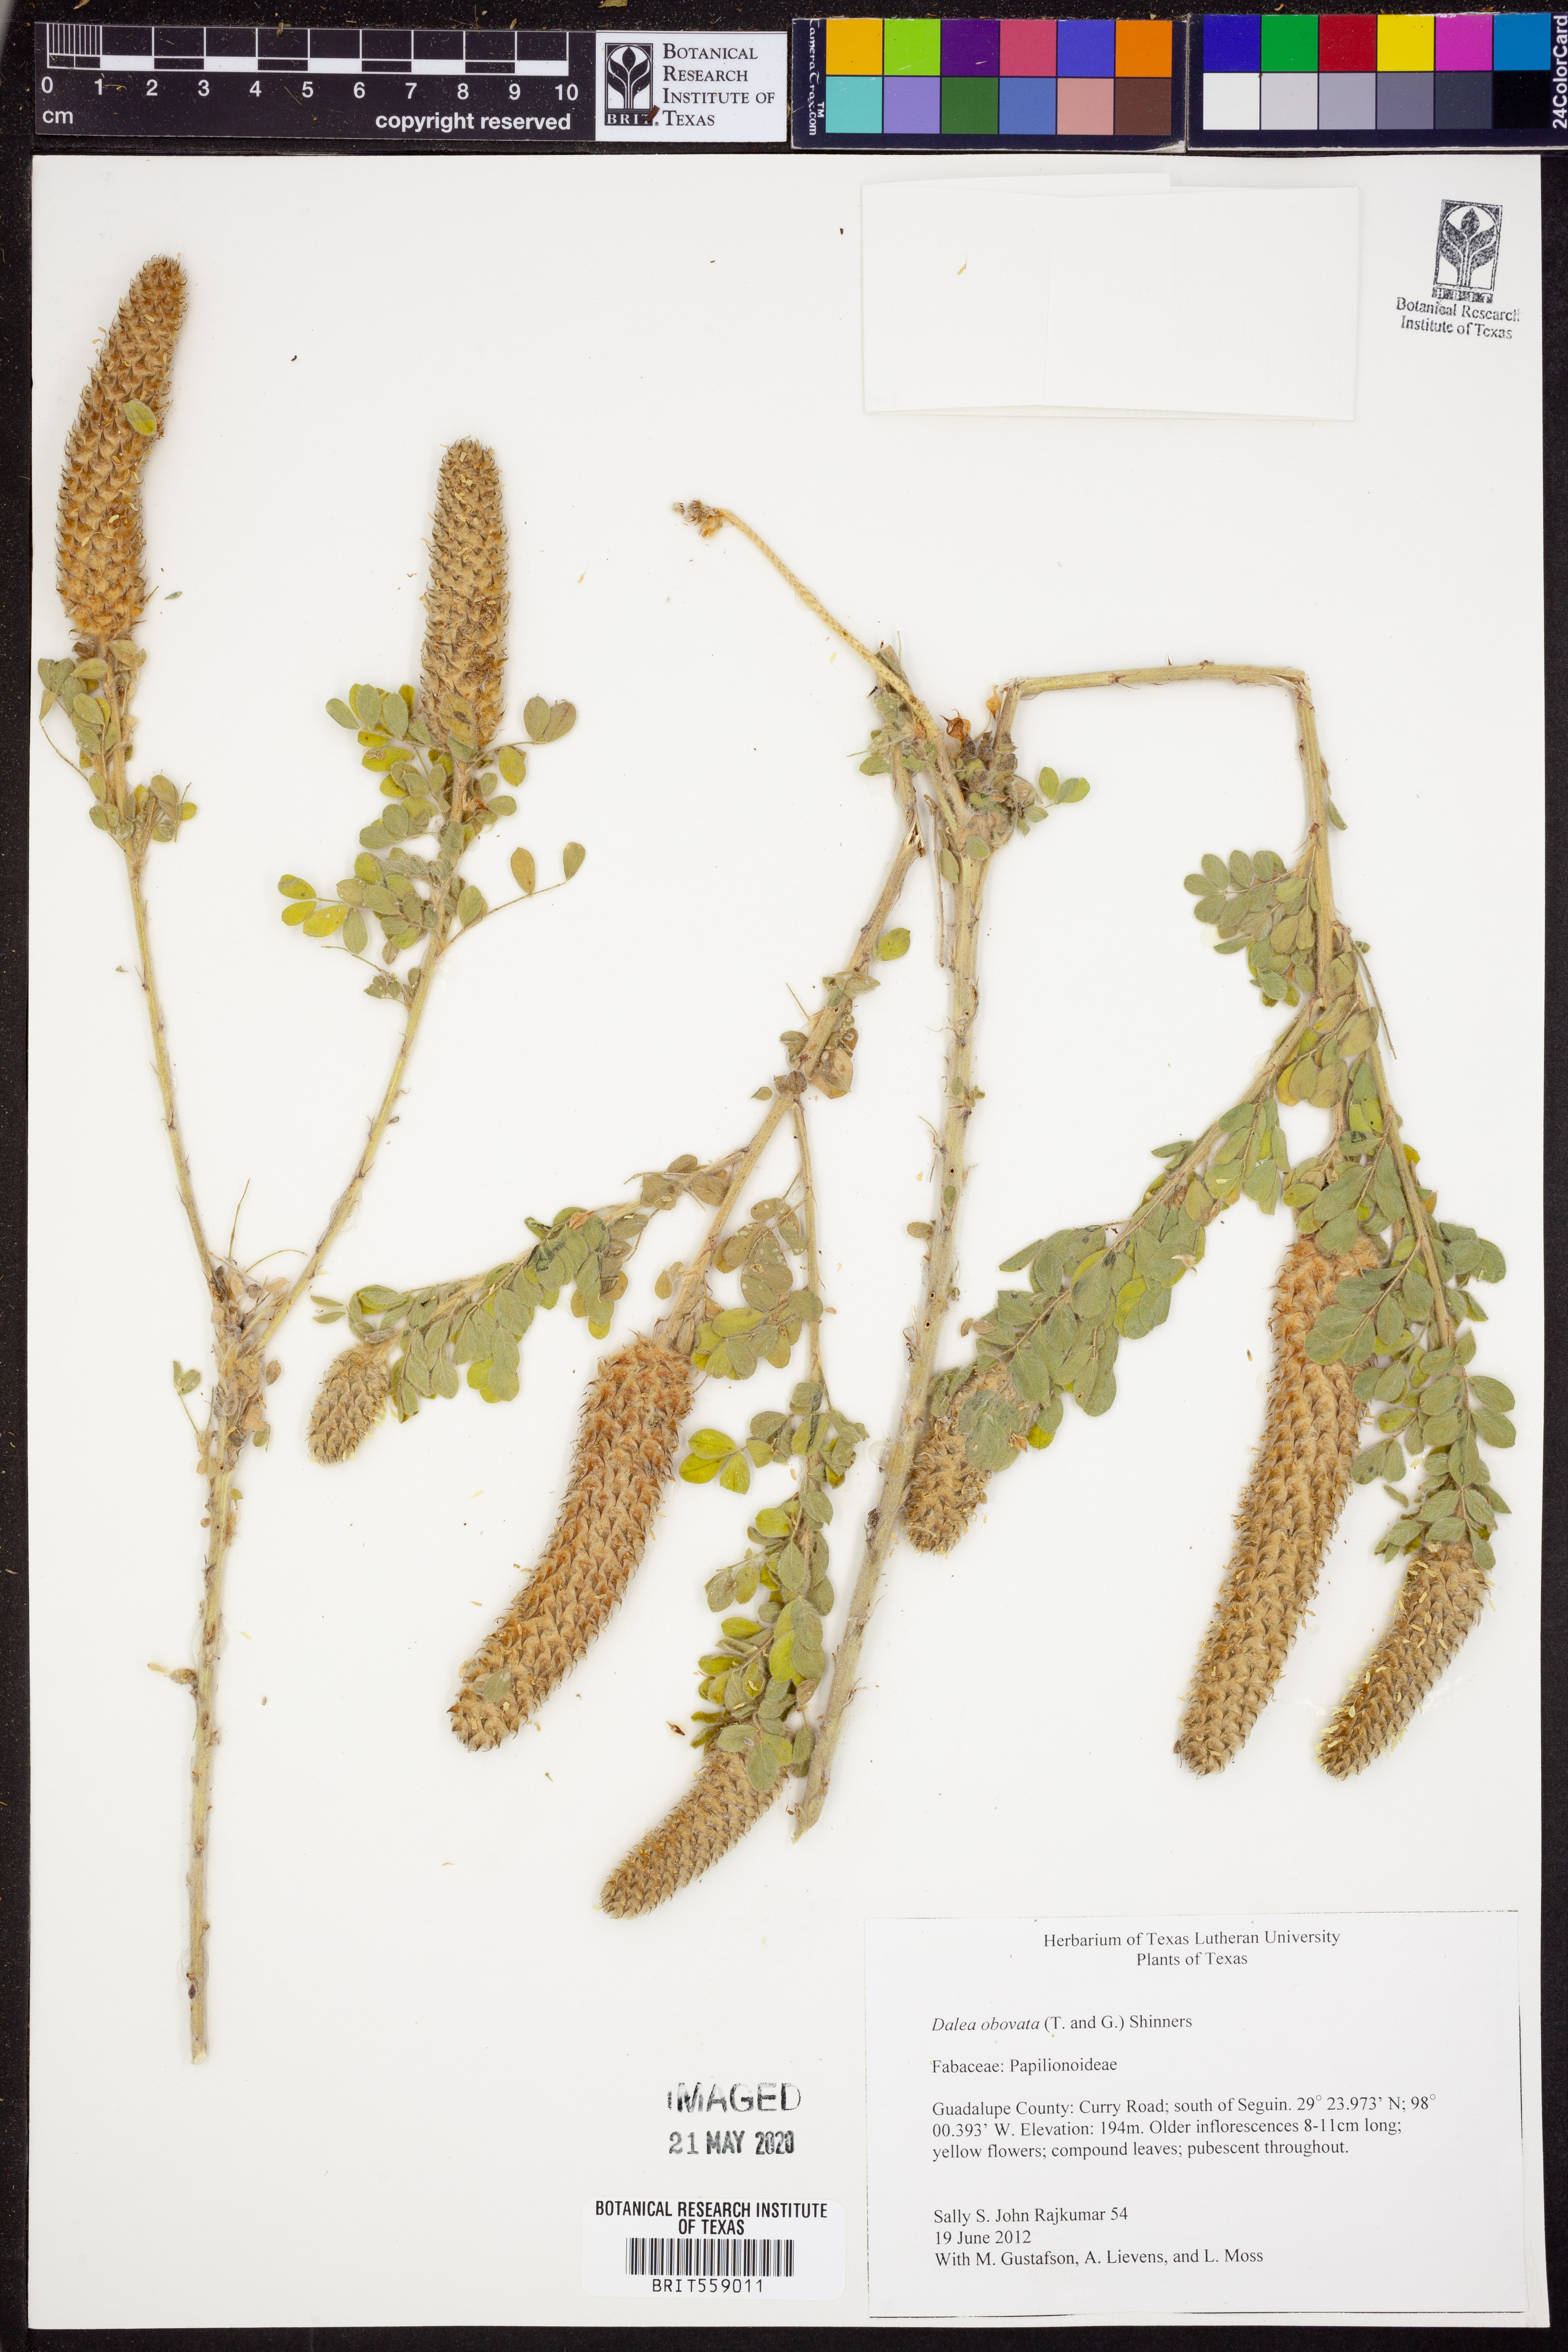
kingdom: Plantae
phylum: Tracheophyta
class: Magnoliopsida
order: Fabales
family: Fabaceae
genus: Dalea
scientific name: Dalea obovata
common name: Pussyfoot
